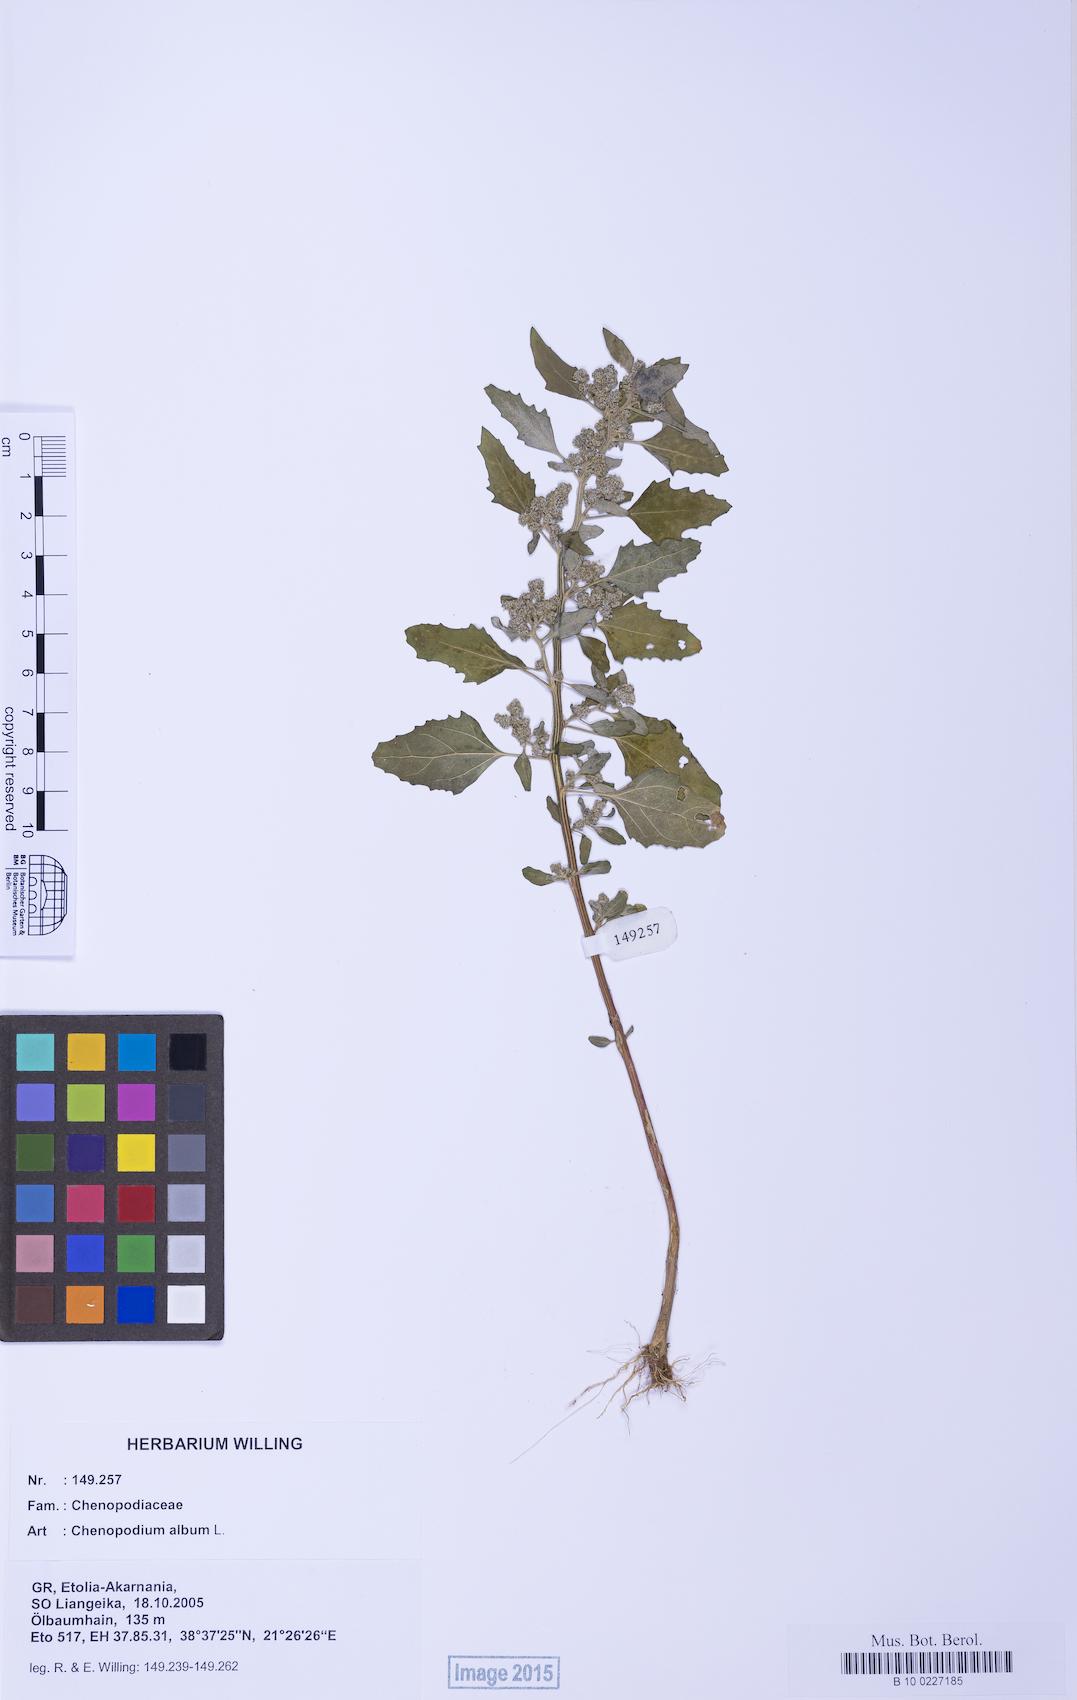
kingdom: Plantae
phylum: Tracheophyta
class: Magnoliopsida
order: Caryophyllales
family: Amaranthaceae
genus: Chenopodium
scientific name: Chenopodium album
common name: Fat-hen
